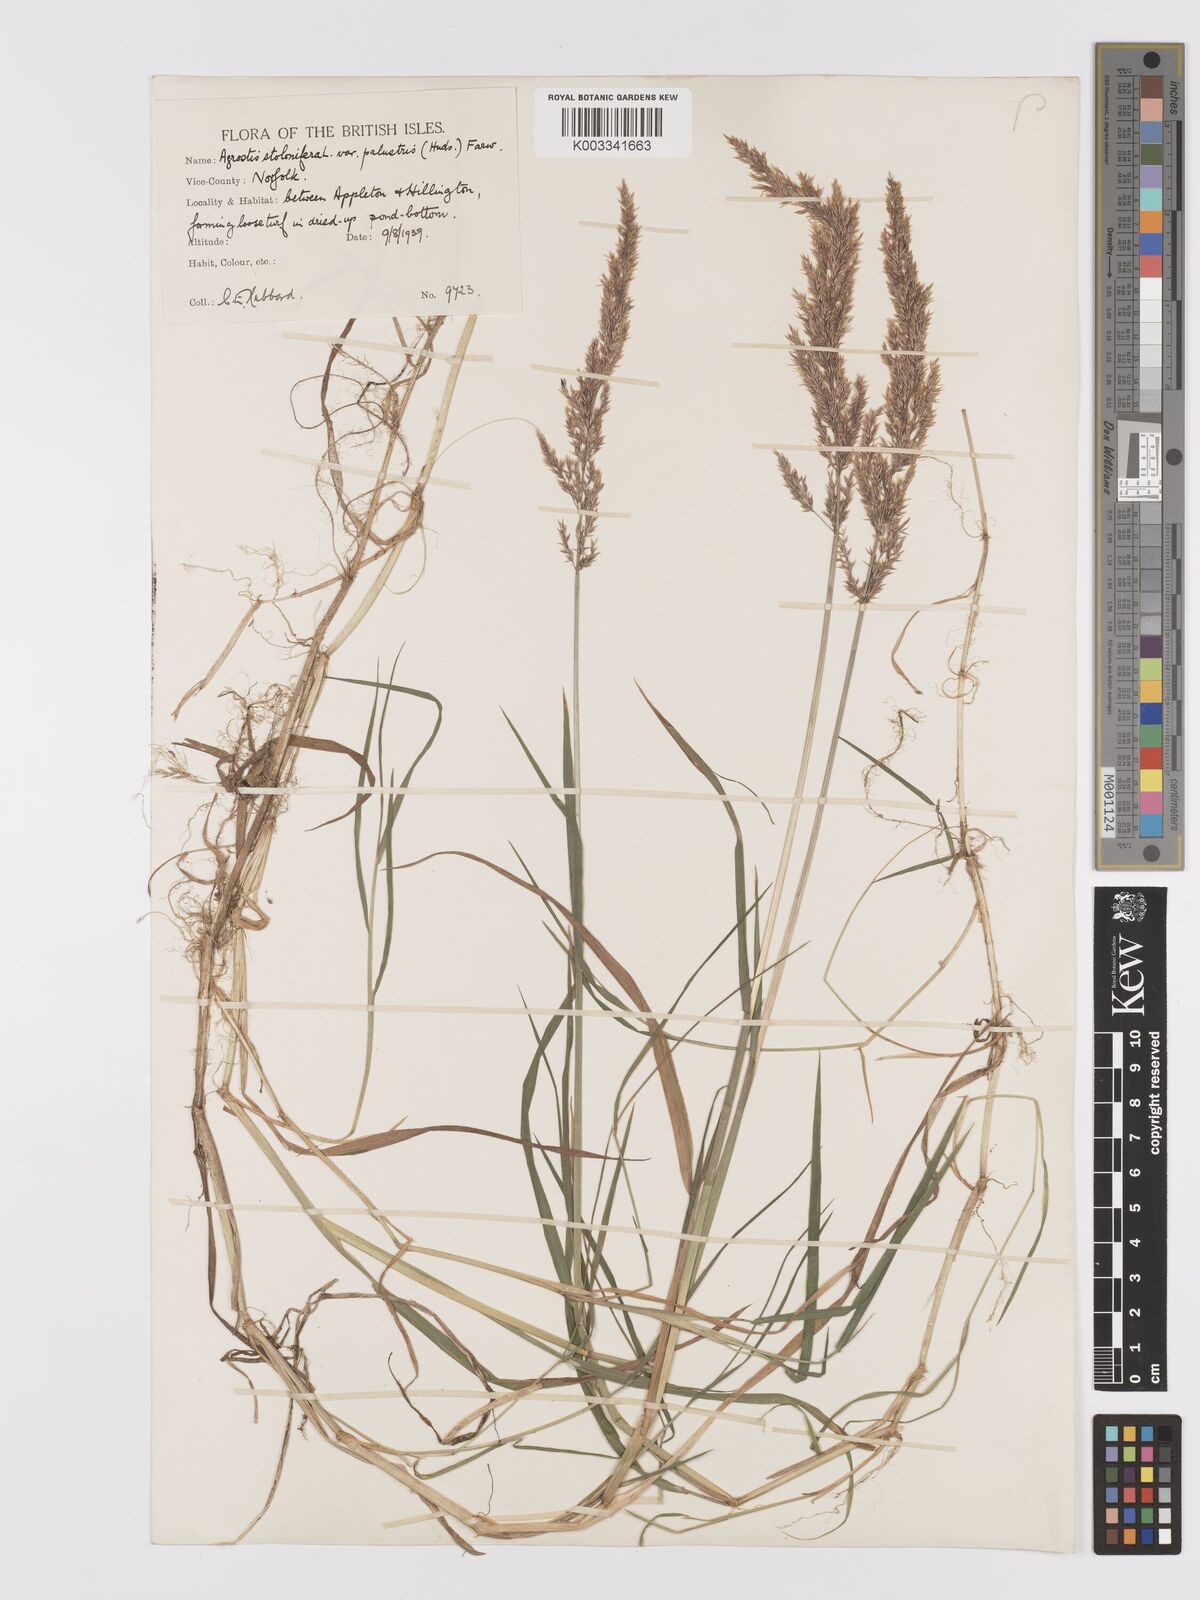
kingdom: Plantae
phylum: Tracheophyta
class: Liliopsida
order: Poales
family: Poaceae
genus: Agrostis
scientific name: Agrostis stolonifera
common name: Creeping bentgrass
